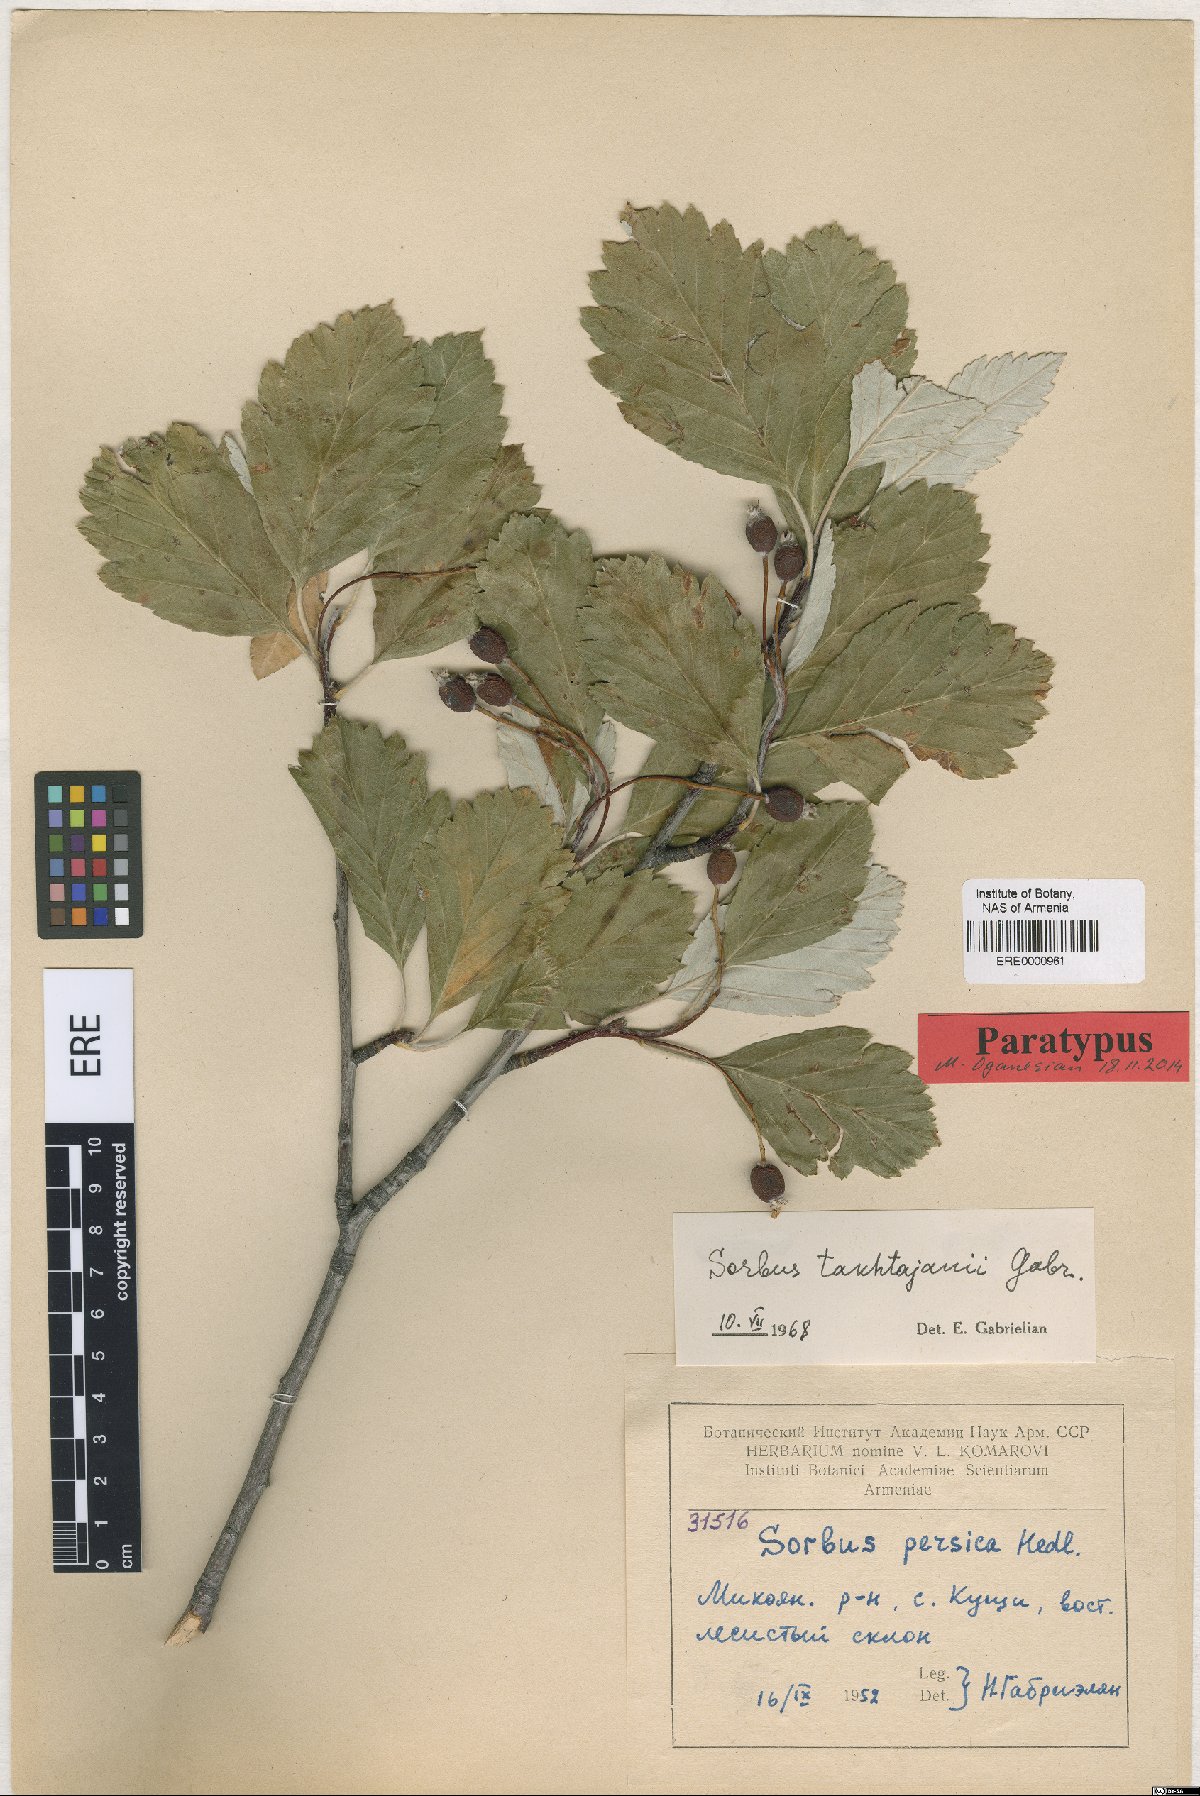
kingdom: Plantae
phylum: Tracheophyta
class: Magnoliopsida
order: Rosales
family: Rosaceae
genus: Hedlundia
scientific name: Hedlundia takhtajanii
